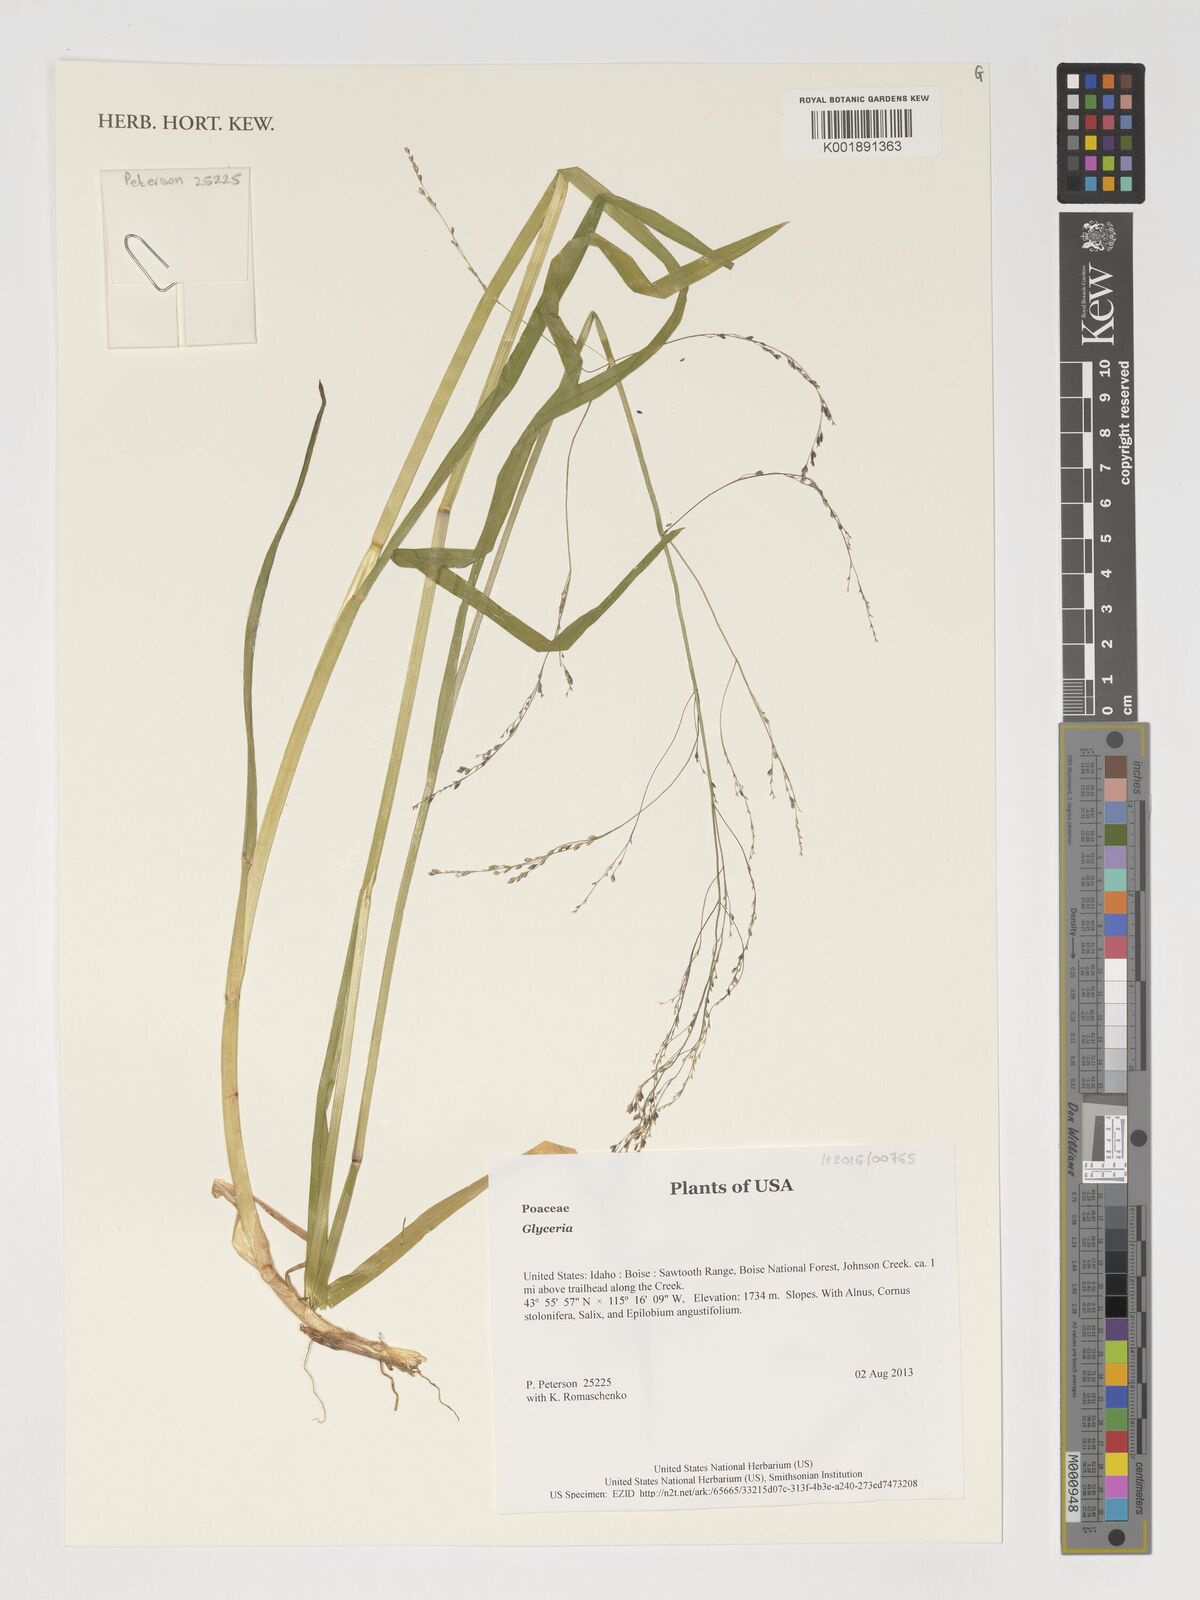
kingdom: Plantae
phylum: Tracheophyta
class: Liliopsida
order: Poales
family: Poaceae
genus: Glyceria
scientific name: Glyceria
